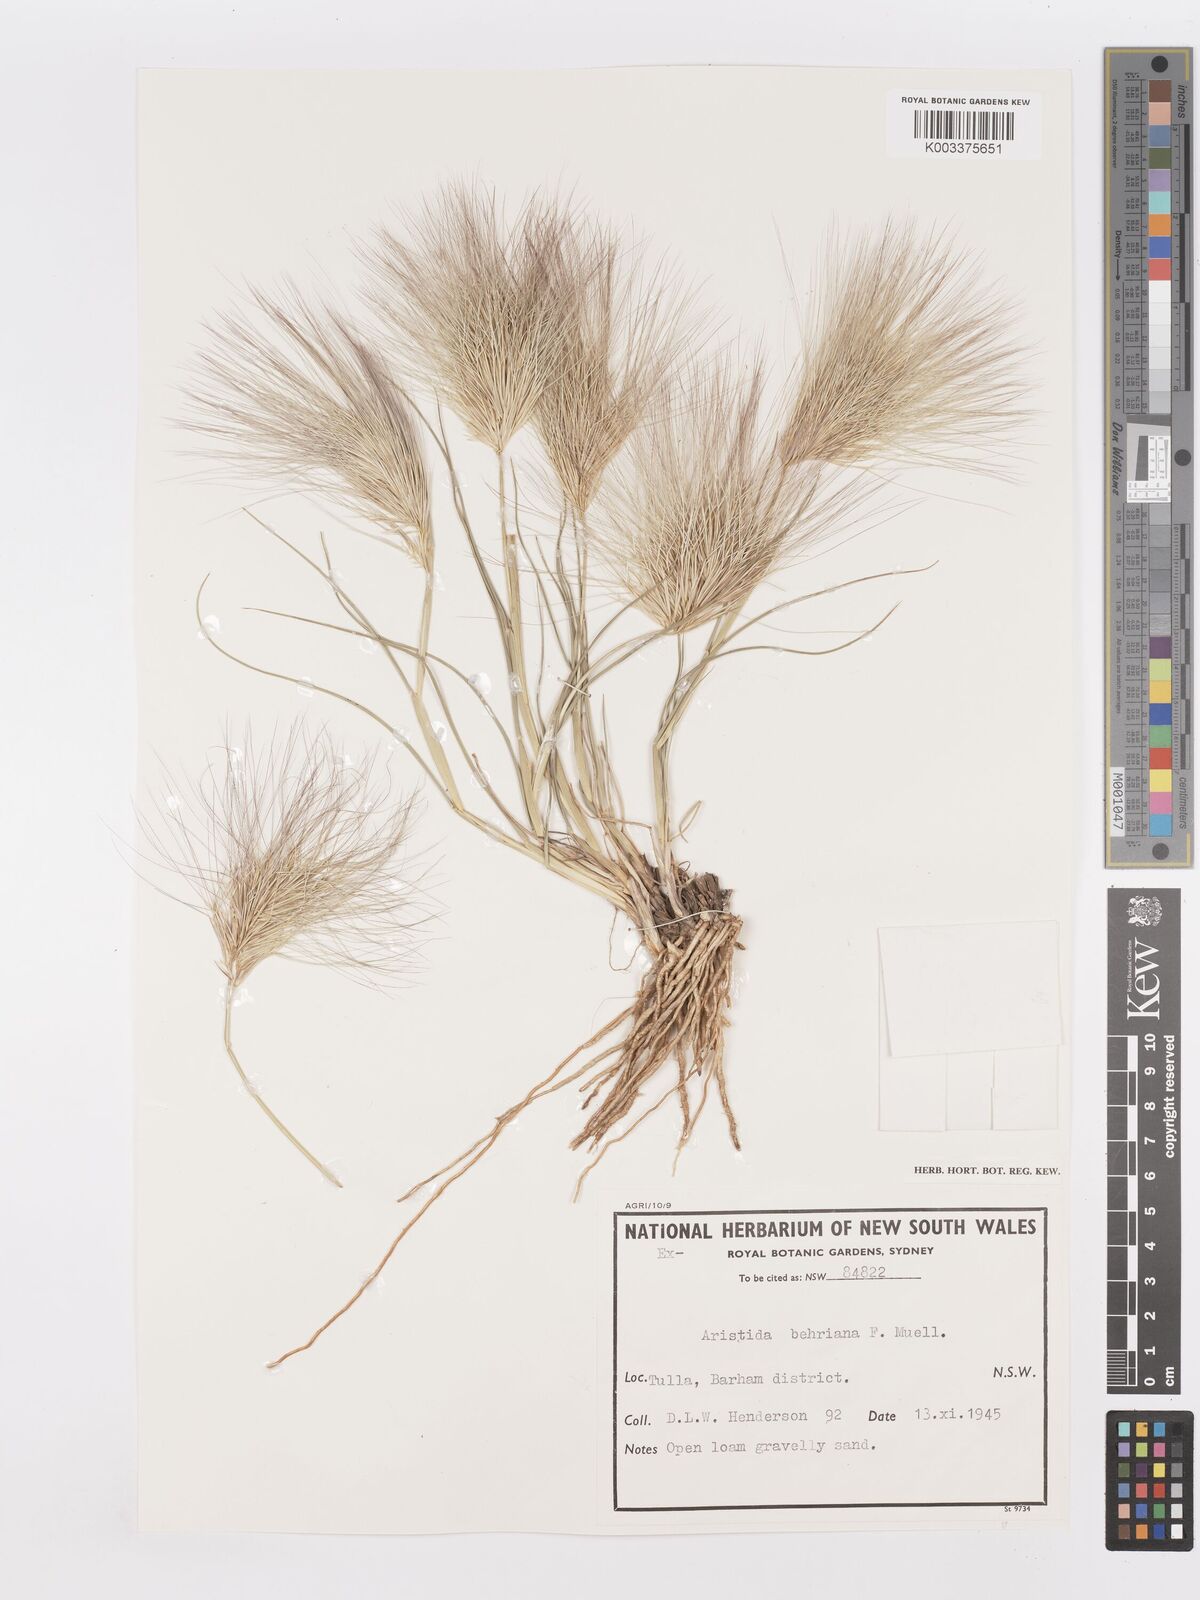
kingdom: Plantae
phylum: Tracheophyta
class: Liliopsida
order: Poales
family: Poaceae
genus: Aristida
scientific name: Aristida behriana
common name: Long-awn wire grass
